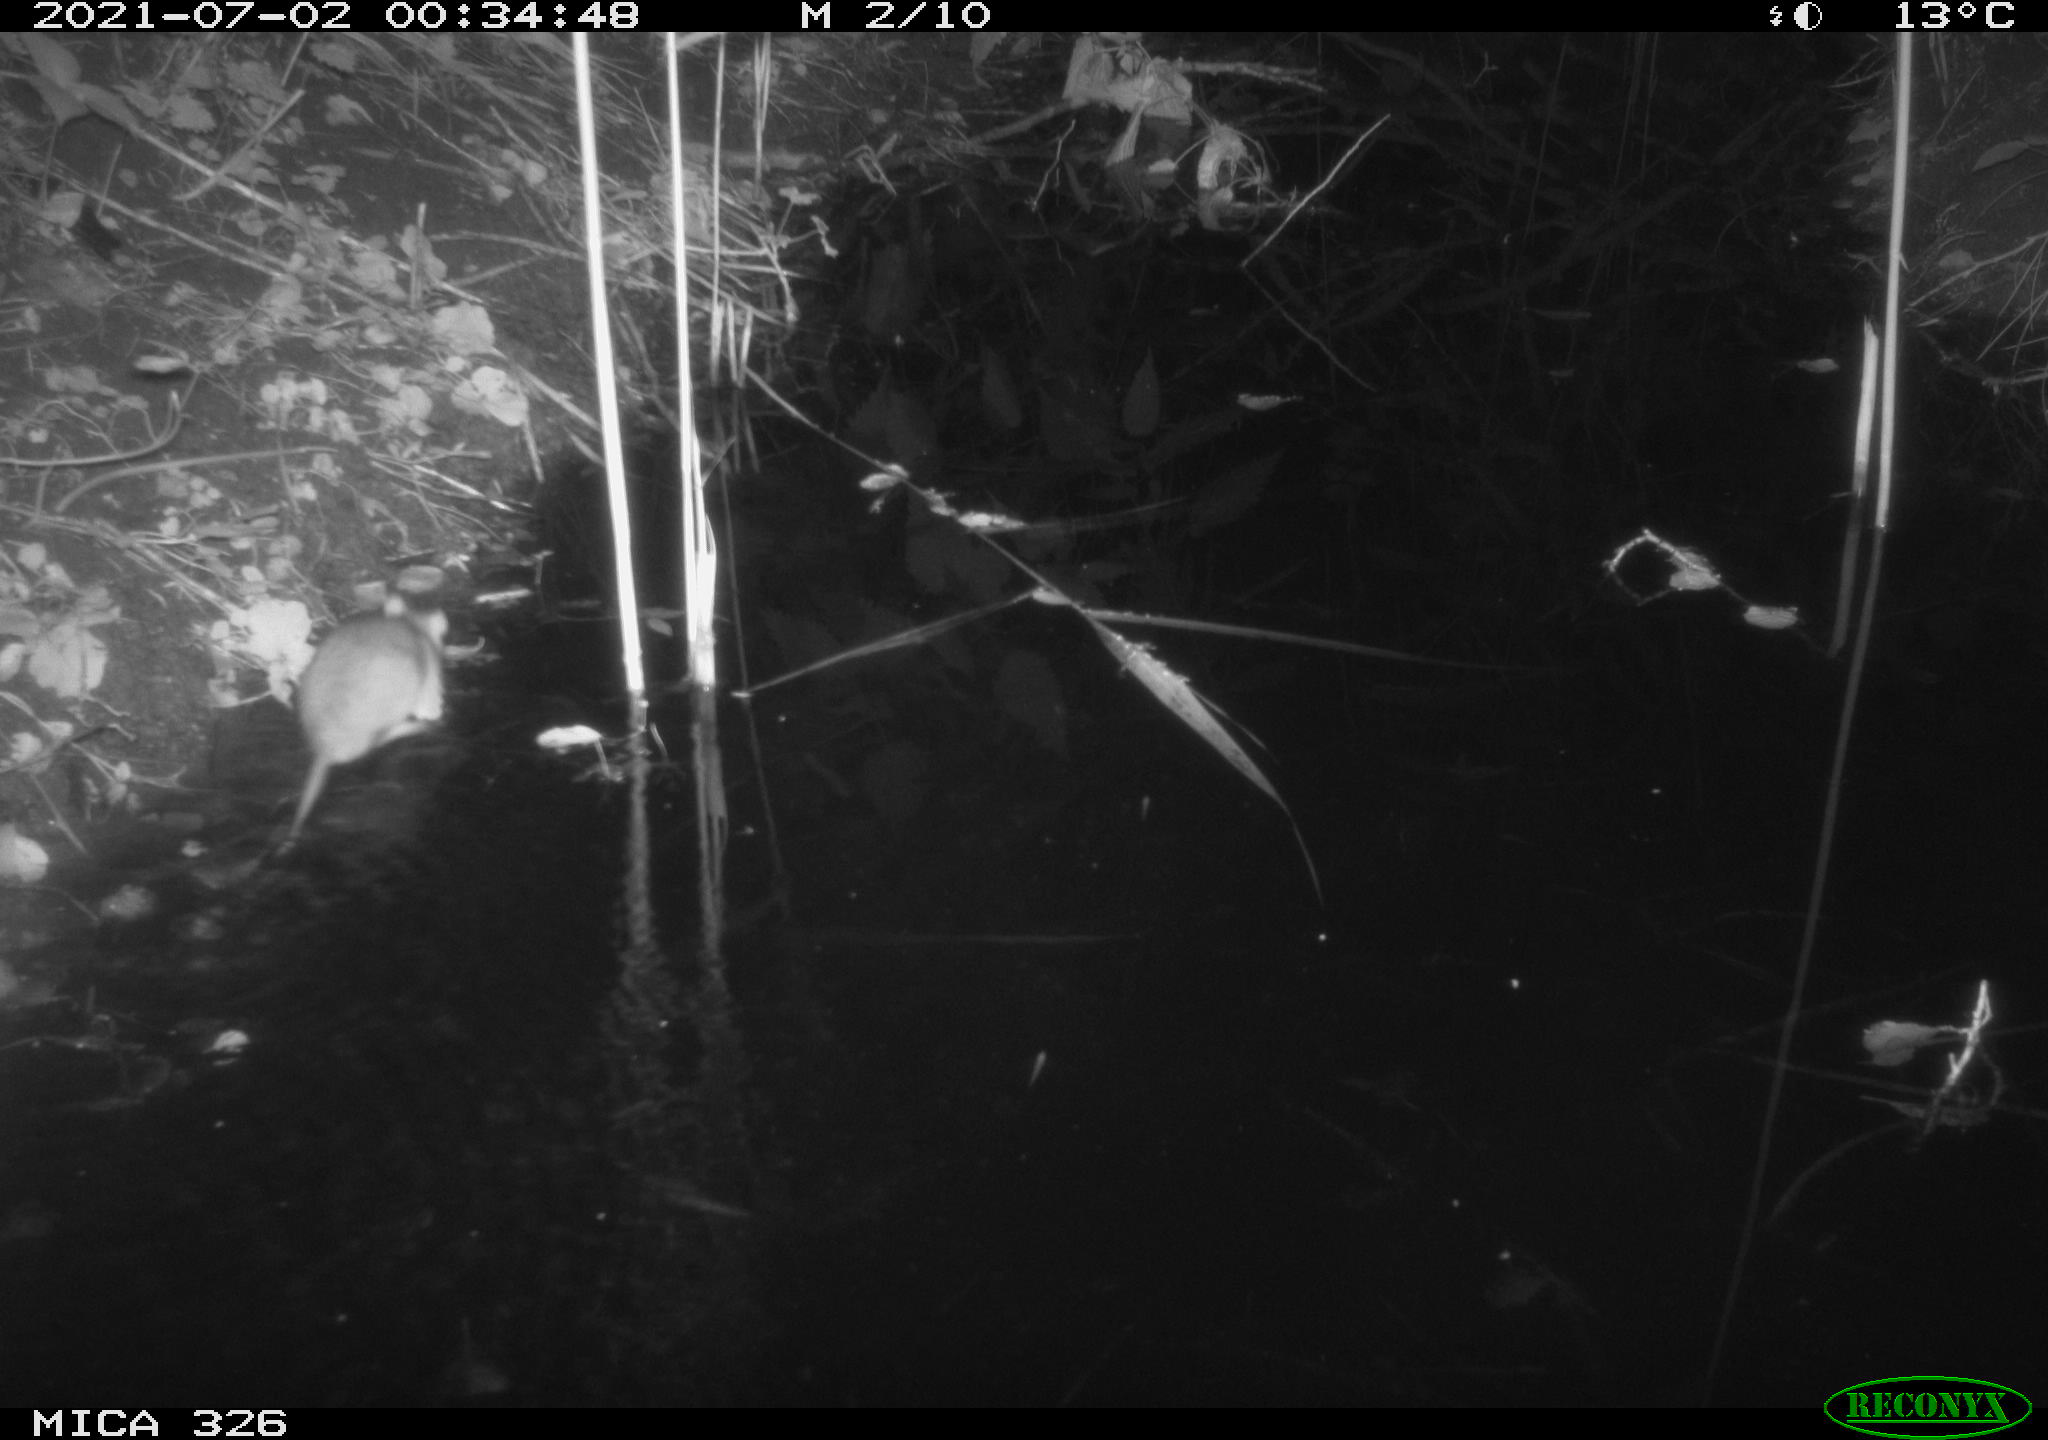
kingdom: Animalia
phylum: Chordata
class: Mammalia
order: Rodentia
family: Muridae
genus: Rattus
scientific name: Rattus norvegicus
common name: Brown rat
